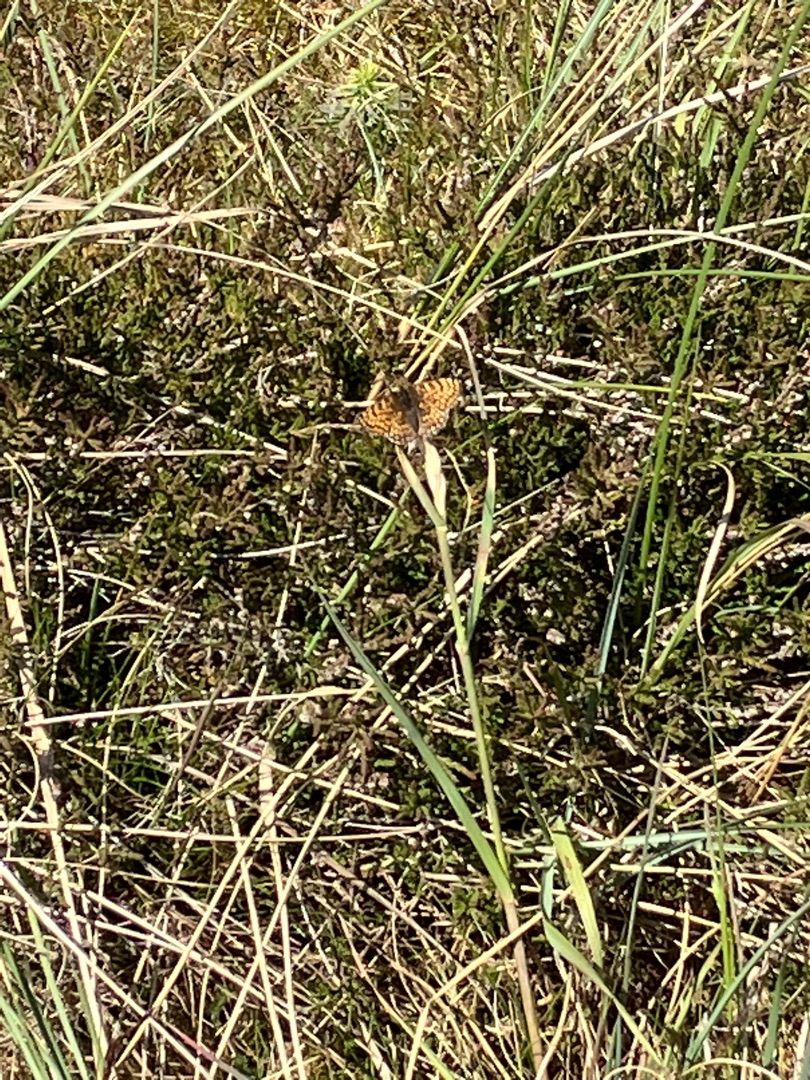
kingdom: Animalia
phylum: Arthropoda
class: Insecta
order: Lepidoptera
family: Nymphalidae
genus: Melitaea
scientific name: Melitaea cinxia
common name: Okkergul pletvinge
